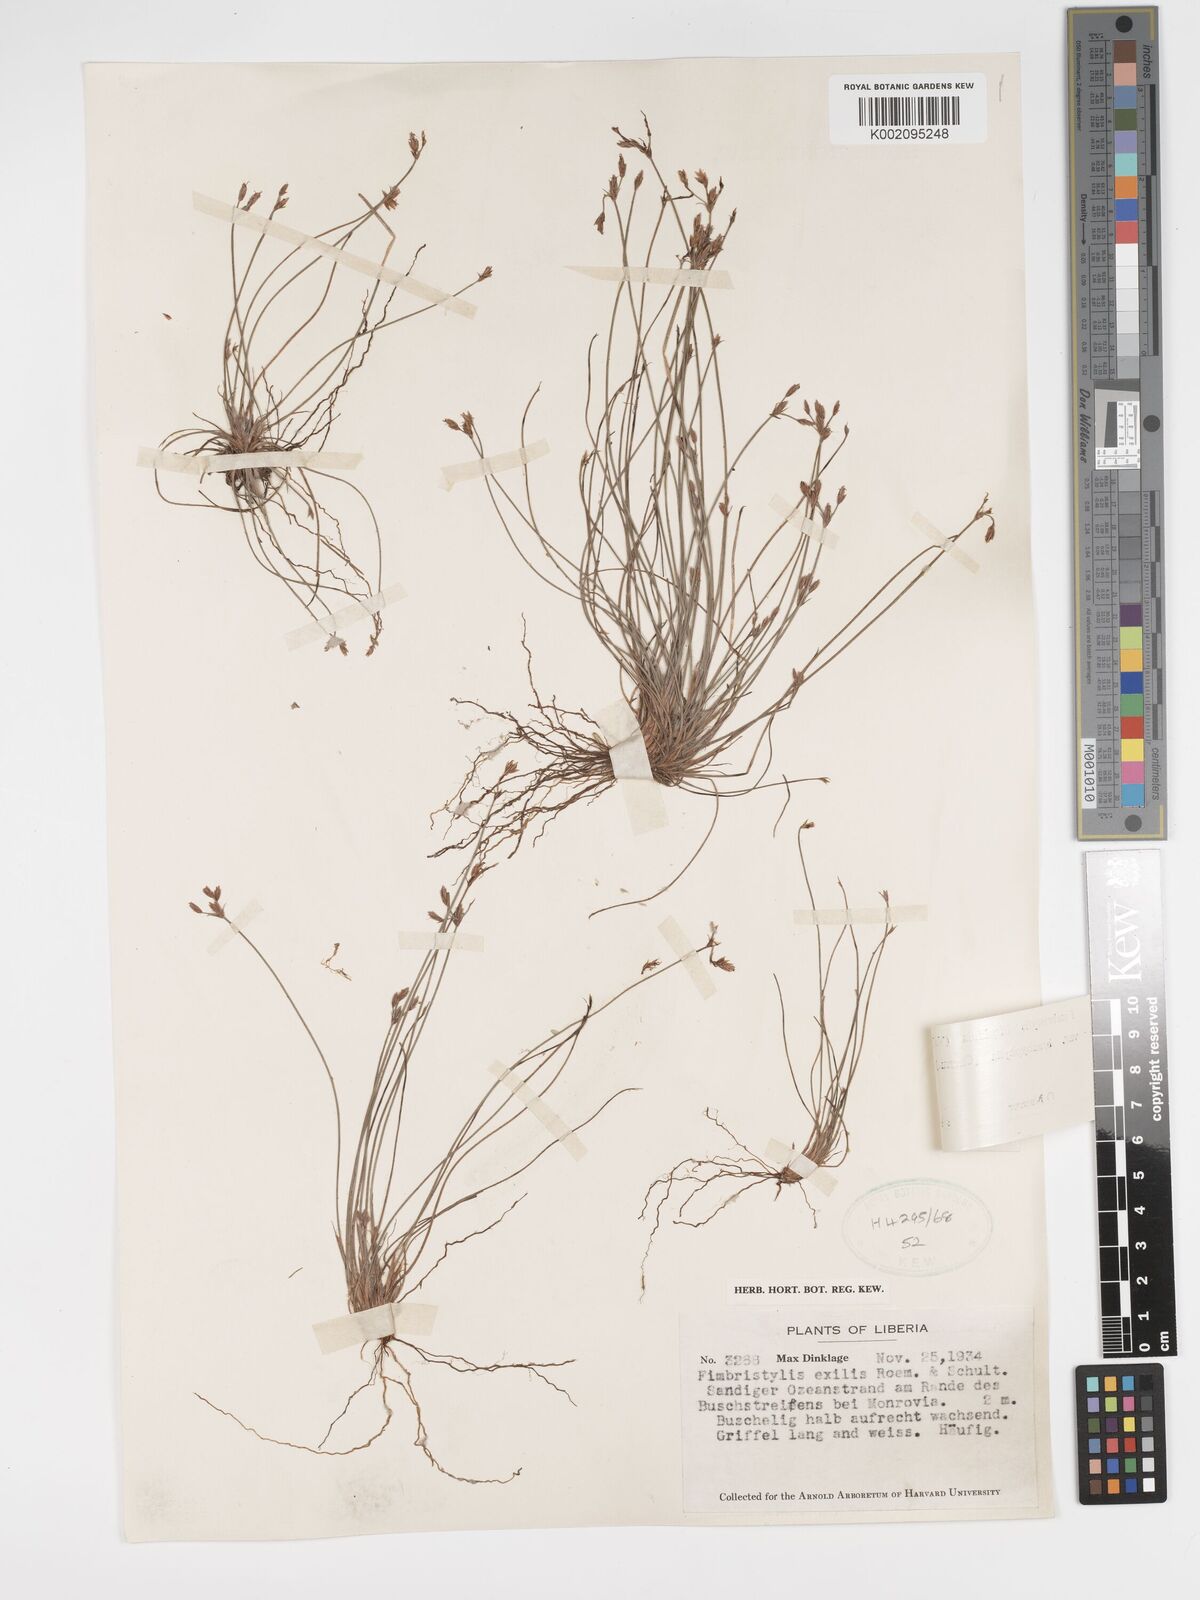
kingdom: Plantae
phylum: Tracheophyta
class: Liliopsida
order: Poales
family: Cyperaceae
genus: Bulbostylis
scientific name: Bulbostylis hispidula
